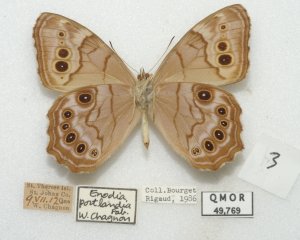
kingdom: Animalia
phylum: Arthropoda
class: Insecta
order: Lepidoptera
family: Nymphalidae
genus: Lethe
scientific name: Lethe anthedon
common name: Northern Pearly-Eye
